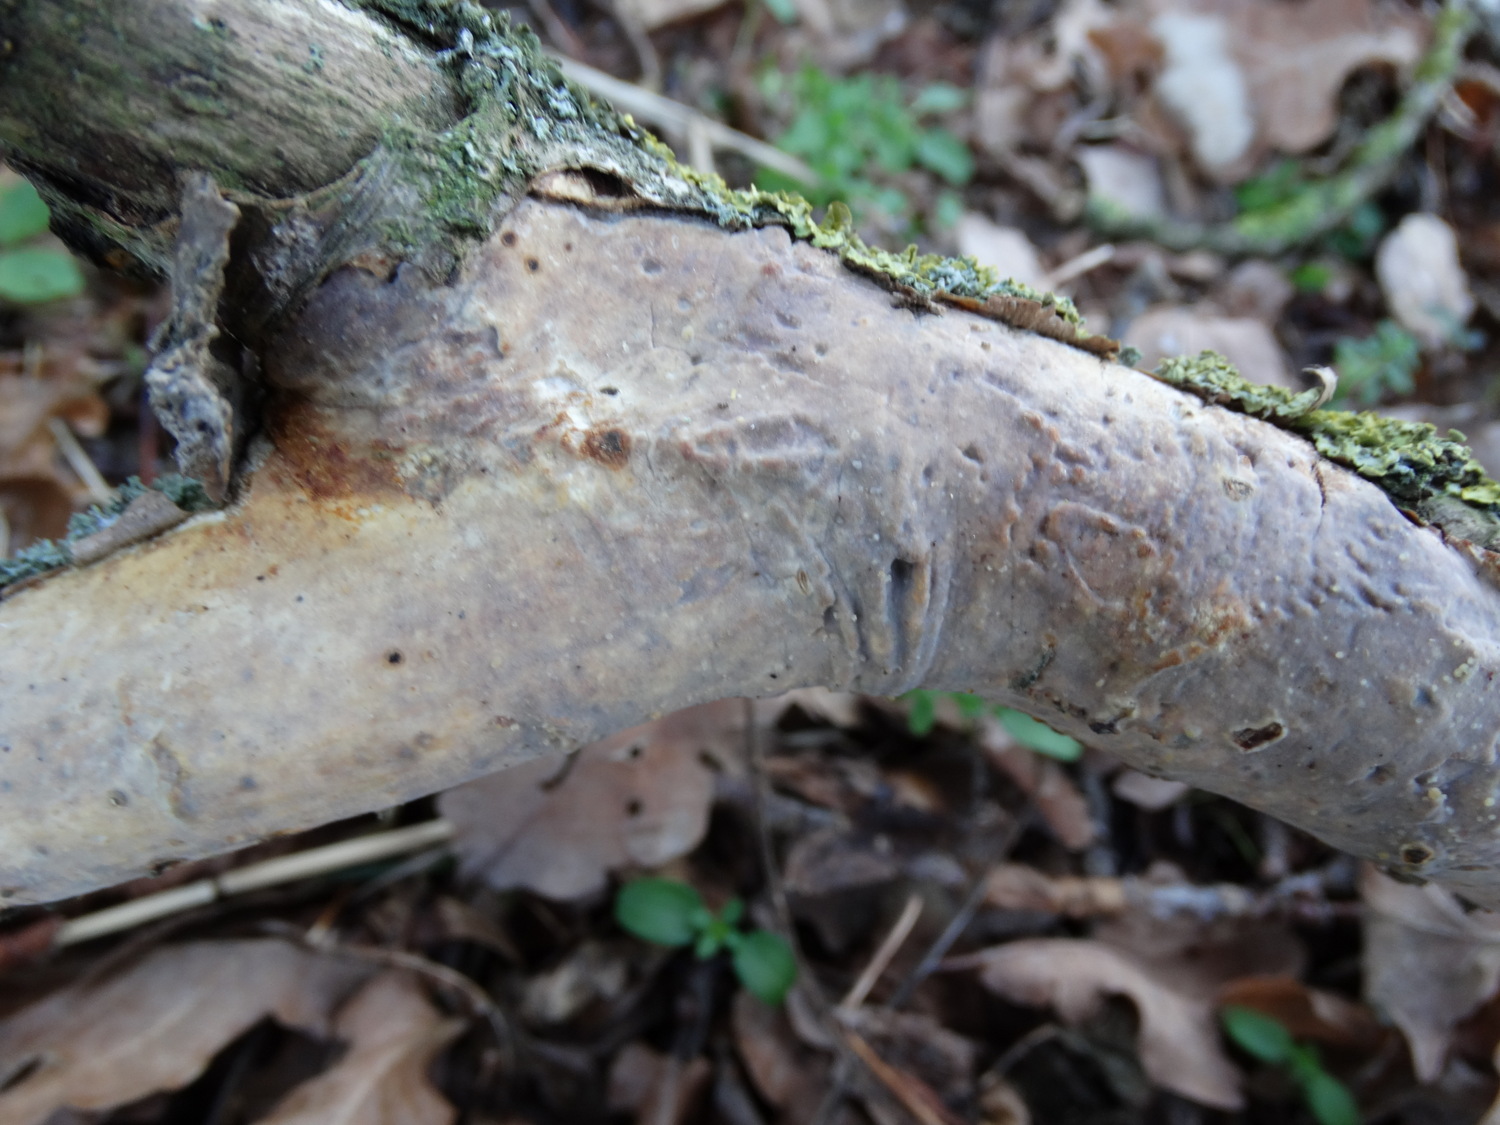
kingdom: Fungi
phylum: Basidiomycota
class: Agaricomycetes
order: Corticiales
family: Vuilleminiaceae
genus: Vuilleminia
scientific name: Vuilleminia comedens
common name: almindelig barksprænger
